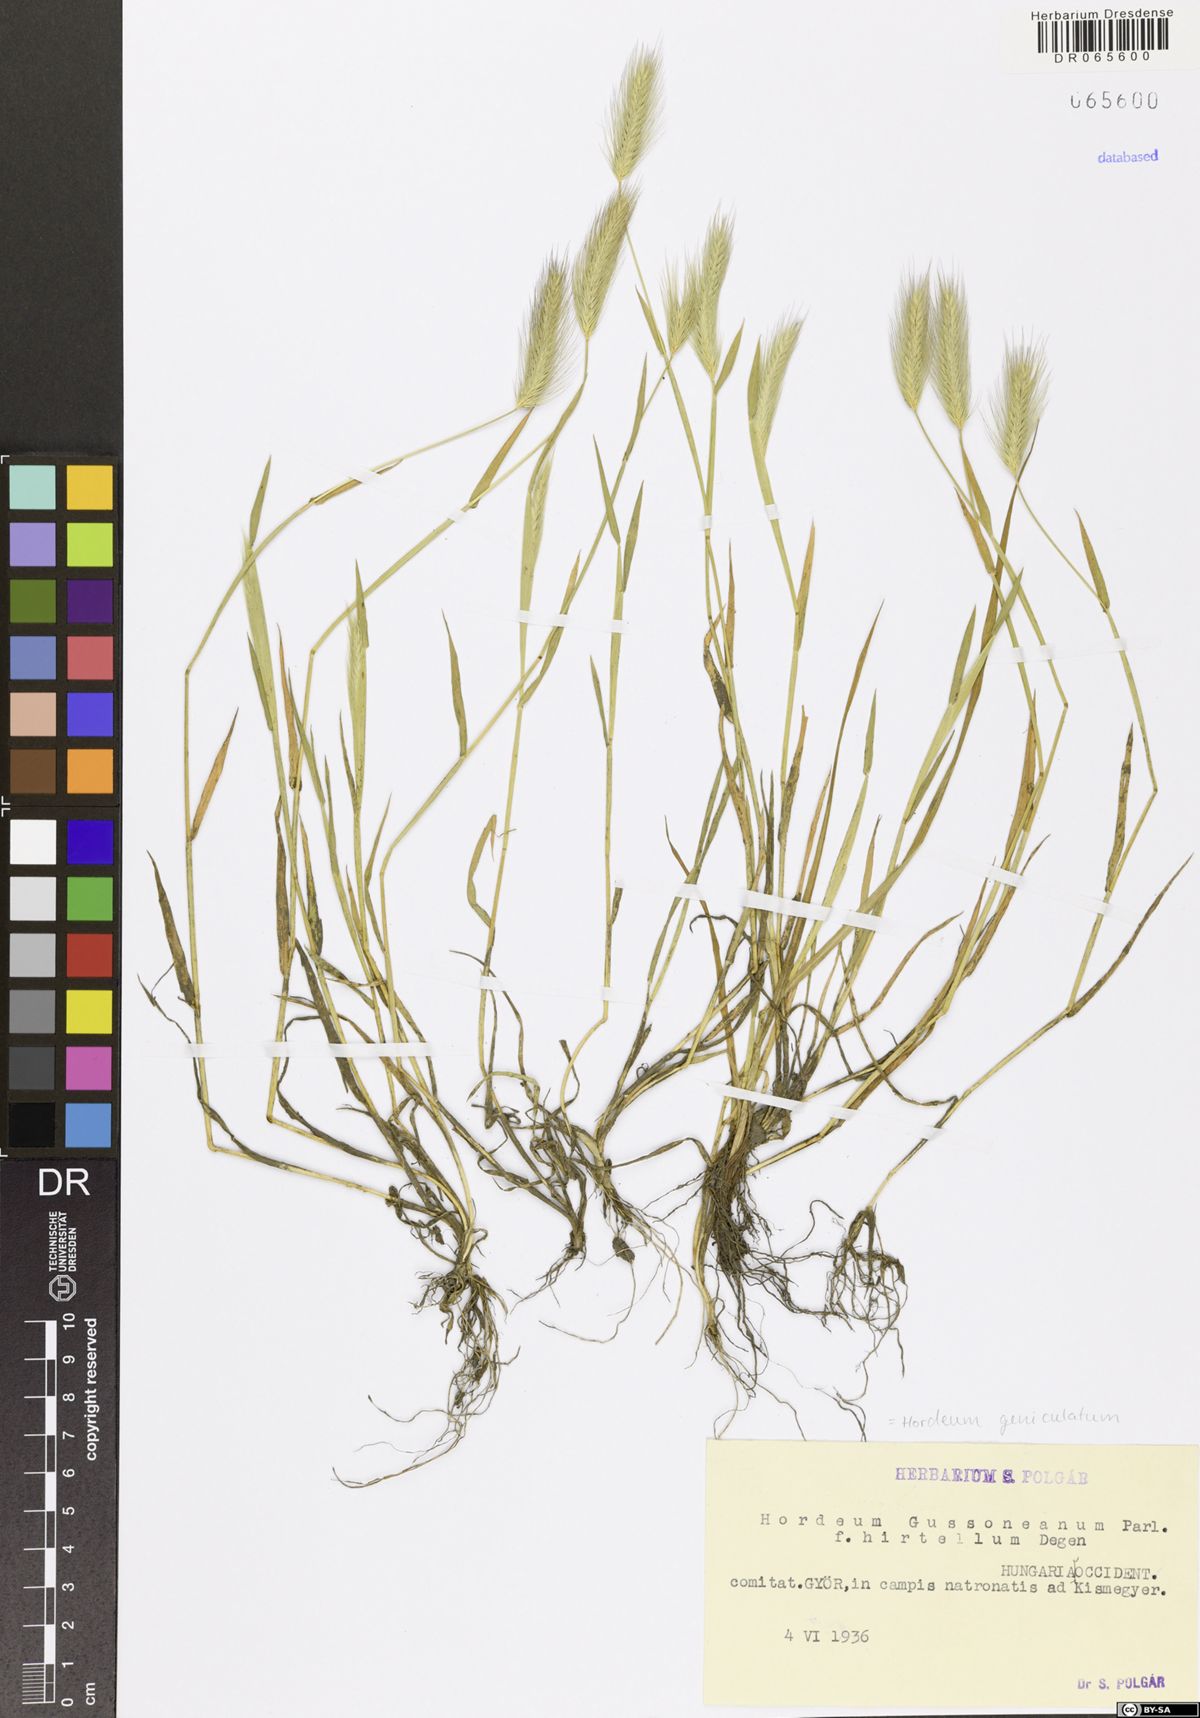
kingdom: Plantae
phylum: Tracheophyta
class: Liliopsida
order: Poales
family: Poaceae
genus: Hordeum
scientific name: Hordeum marinum
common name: Sea barley
